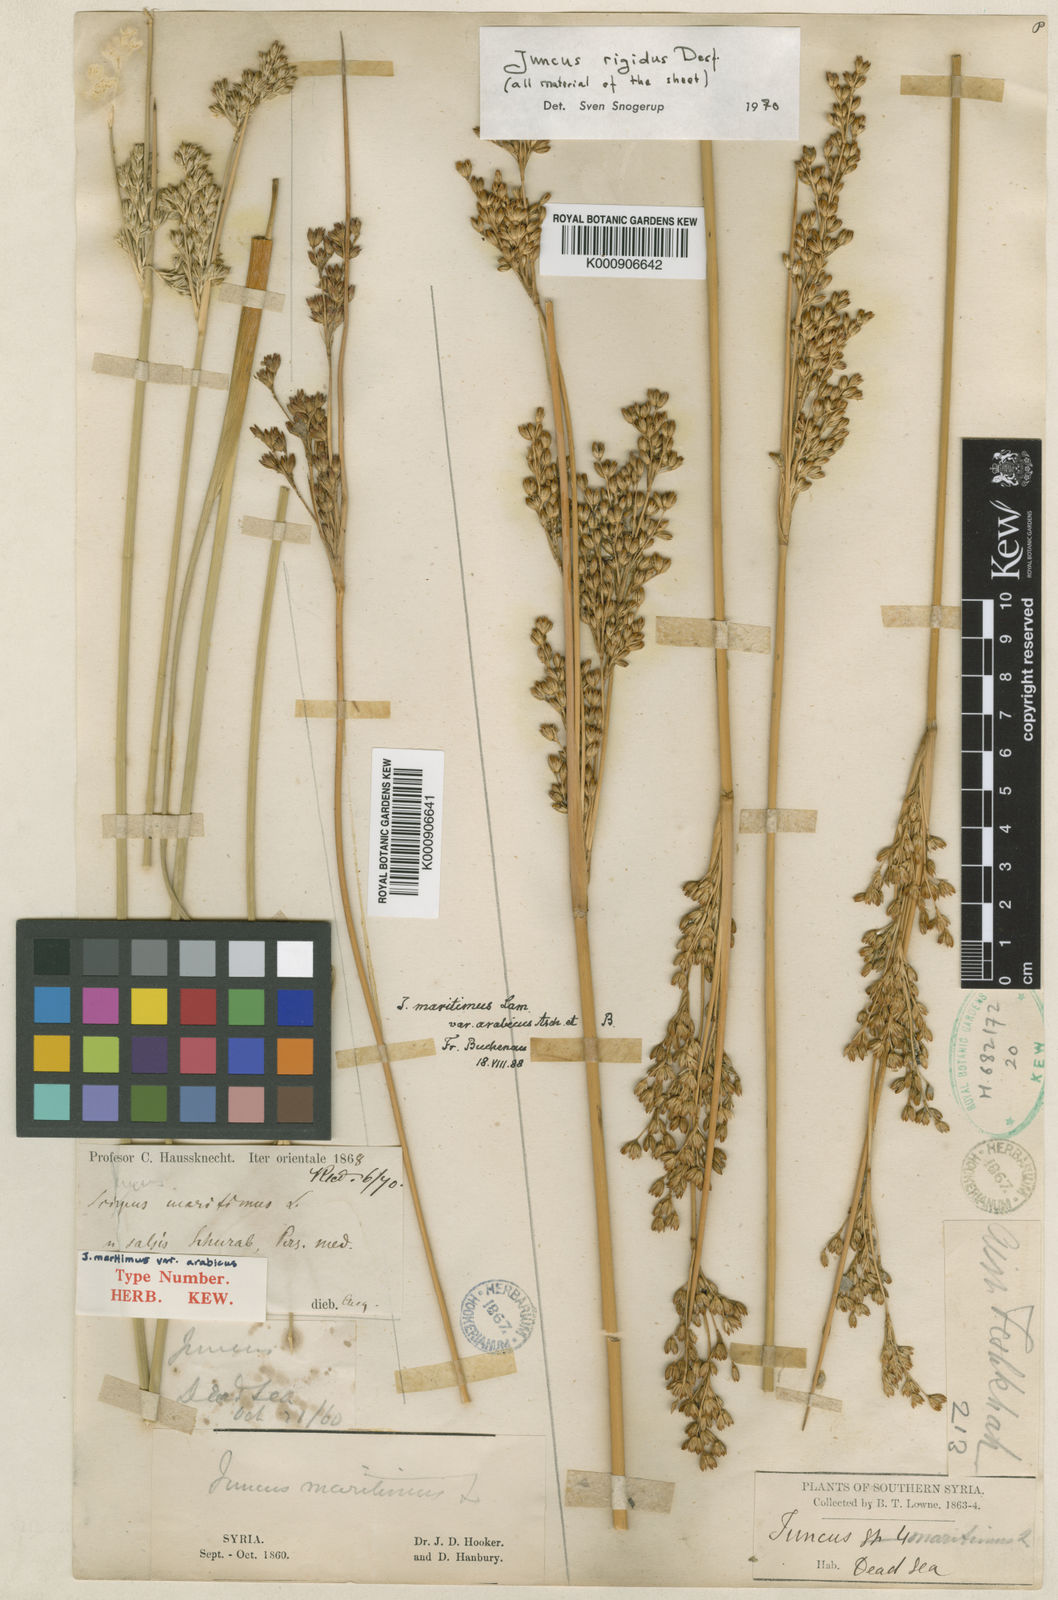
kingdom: Plantae
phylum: Tracheophyta
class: Liliopsida
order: Poales
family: Juncaceae
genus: Juncus
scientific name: Juncus rigidus
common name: Hard sea rush
